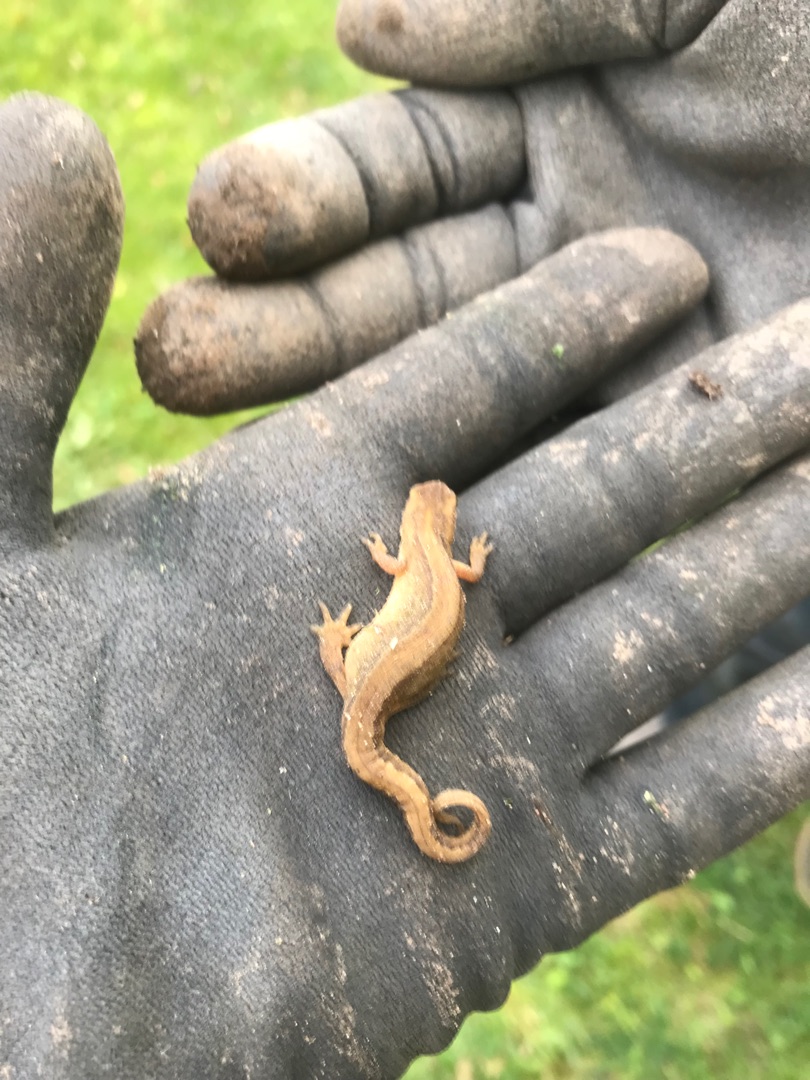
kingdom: Animalia
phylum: Chordata
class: Amphibia
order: Caudata
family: Salamandridae
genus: Lissotriton
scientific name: Lissotriton vulgaris
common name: Lille vandsalamander
